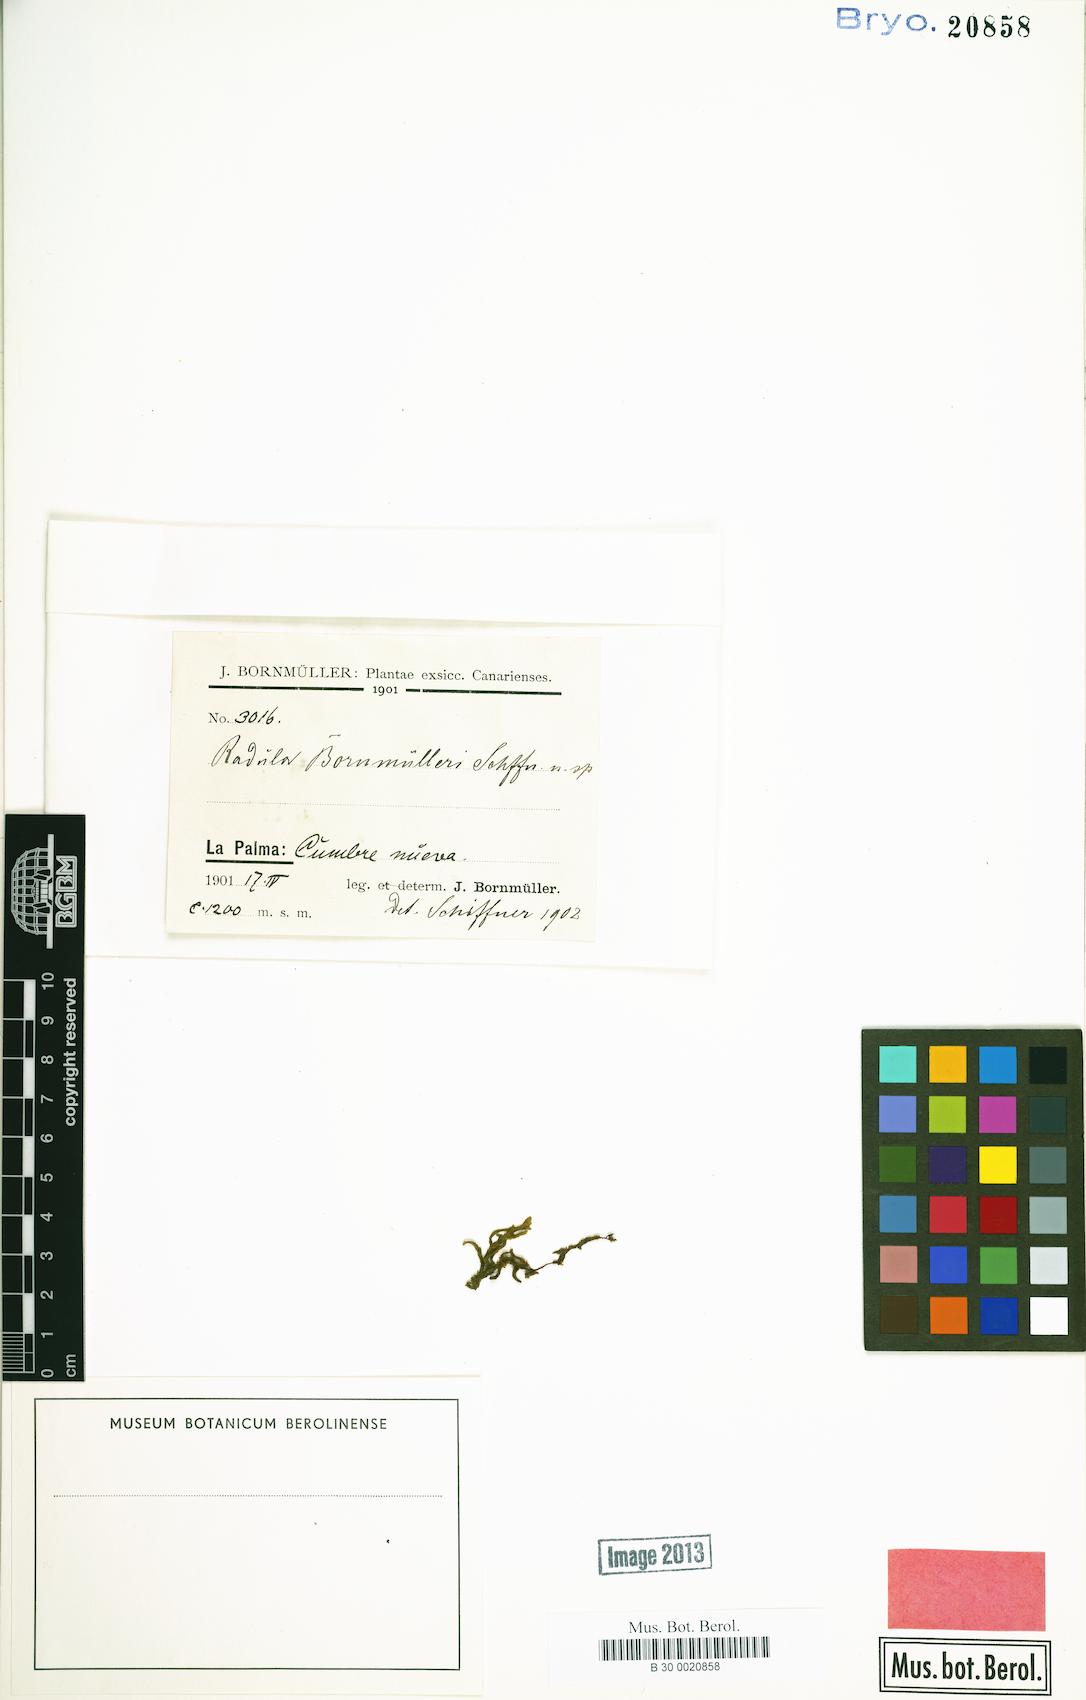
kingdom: Plantae
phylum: Marchantiophyta
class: Jungermanniopsida
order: Porellales
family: Radulaceae
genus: Radula
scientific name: Radula lindenbergiana
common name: Lindenberg's scalewort
